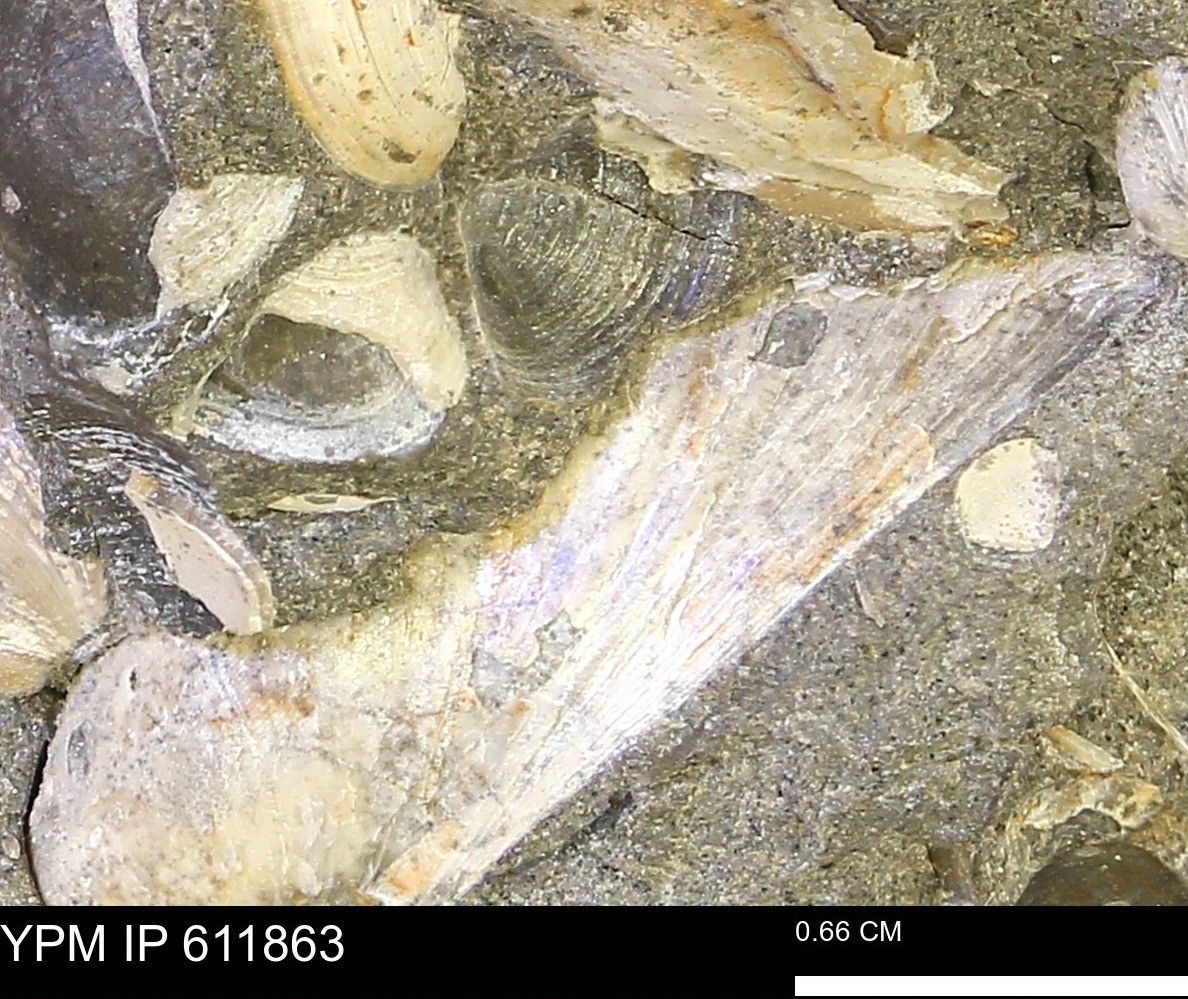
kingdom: Animalia
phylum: Mollusca
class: Bivalvia
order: Cardiida
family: Cardiidae
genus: Protocardia
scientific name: Protocardia
